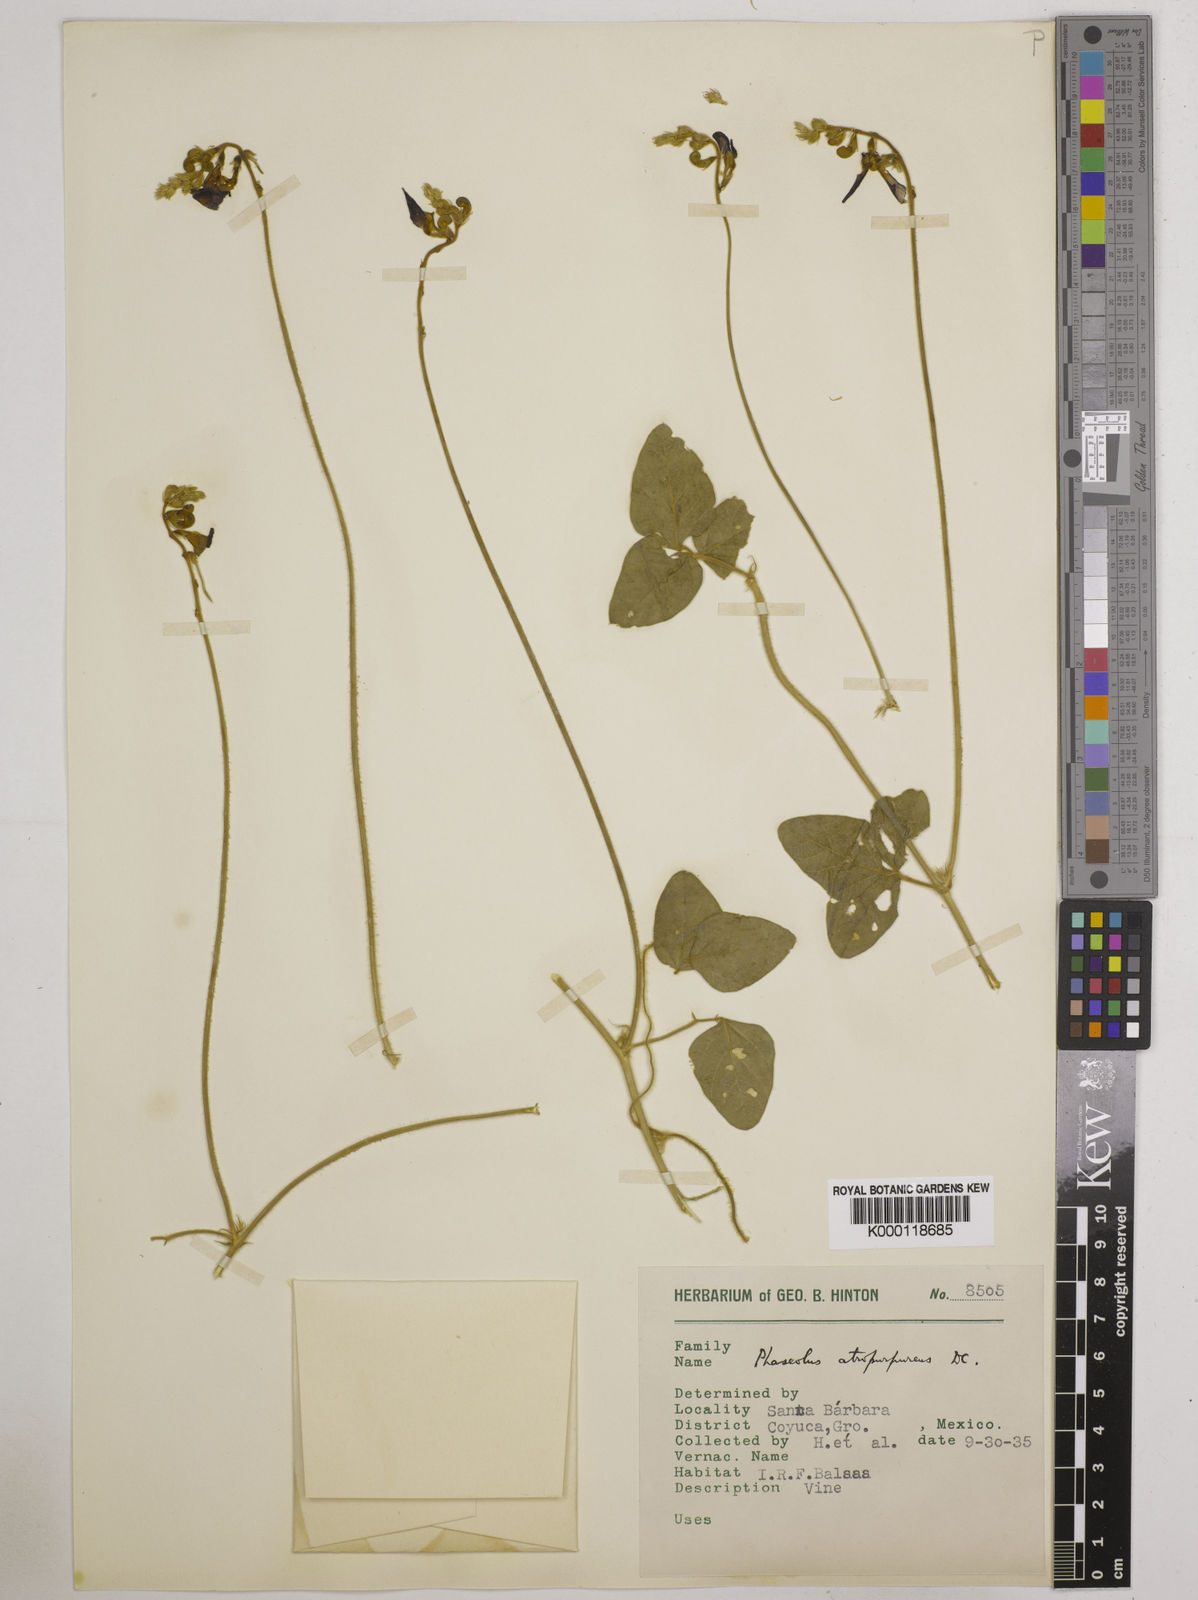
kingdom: Plantae
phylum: Tracheophyta
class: Magnoliopsida
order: Fabales
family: Fabaceae
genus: Macroptilium
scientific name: Macroptilium atropurpureum
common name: Purple bushbean
